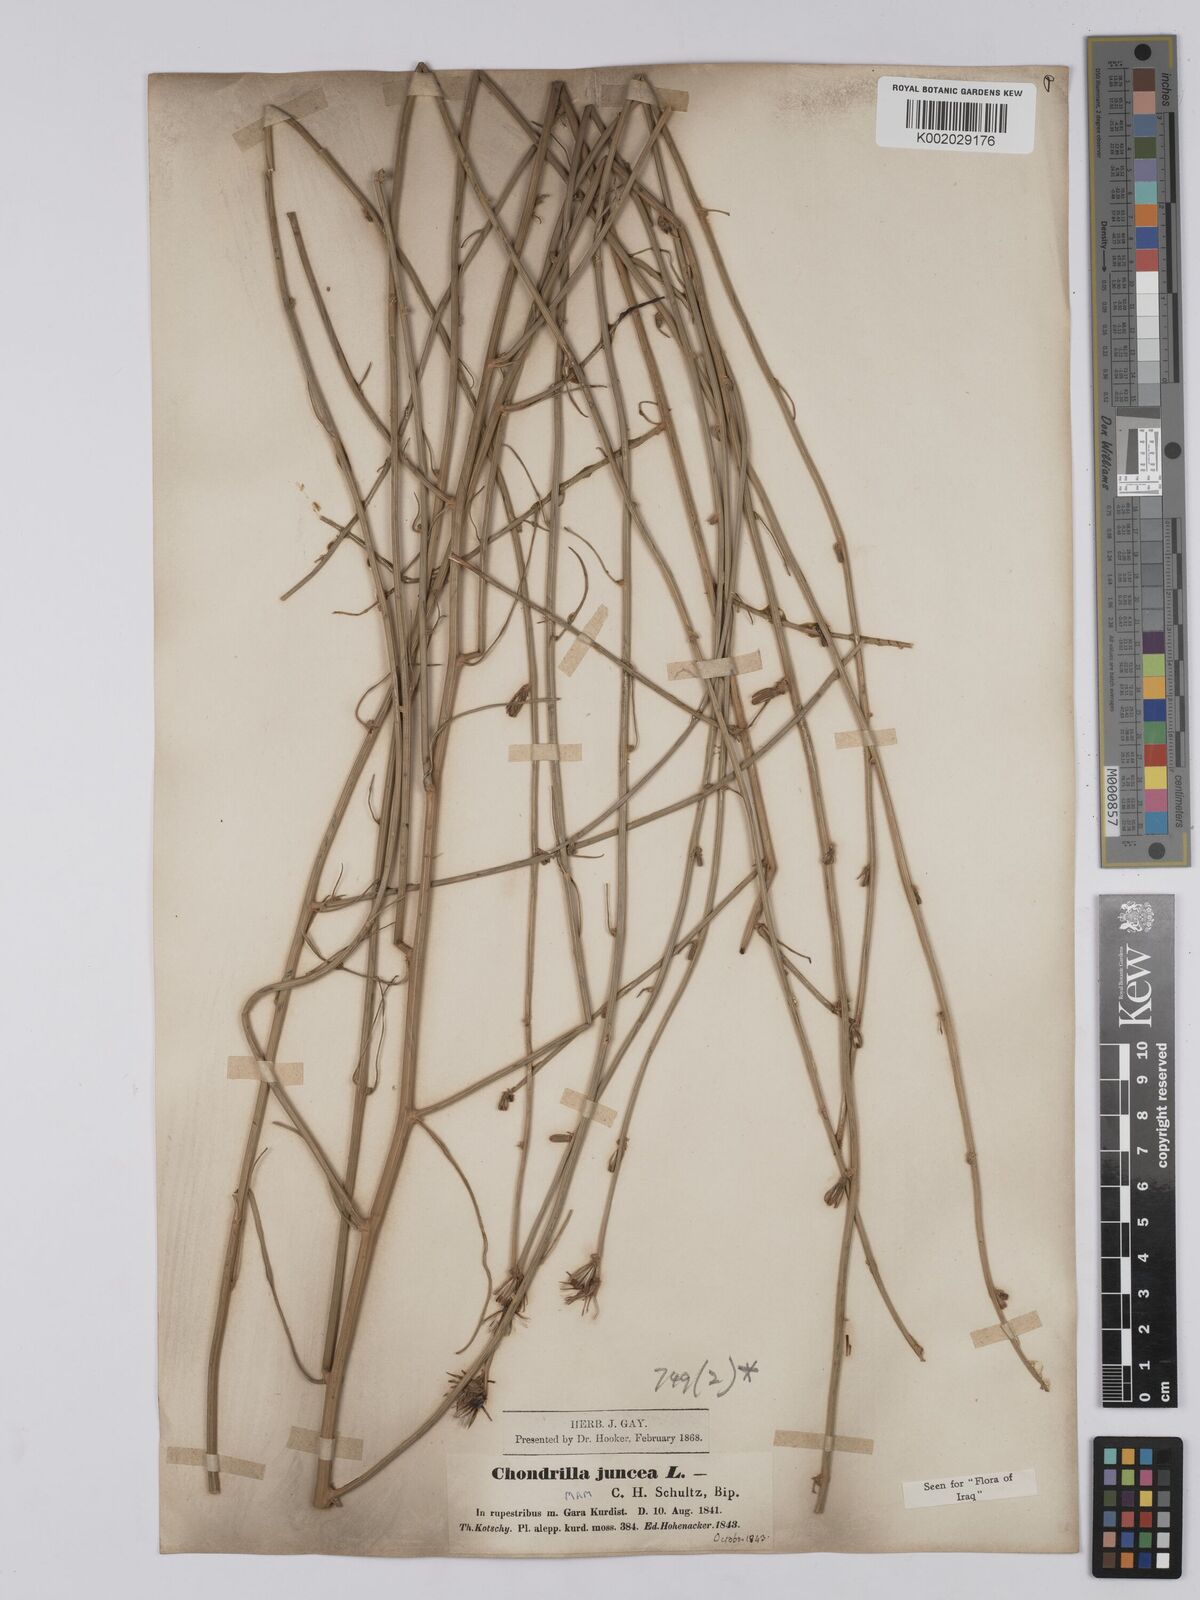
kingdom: Plantae
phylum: Tracheophyta
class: Magnoliopsida
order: Asterales
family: Asteraceae
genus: Chondrilla
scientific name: Chondrilla juncea
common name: Skeleton weed
